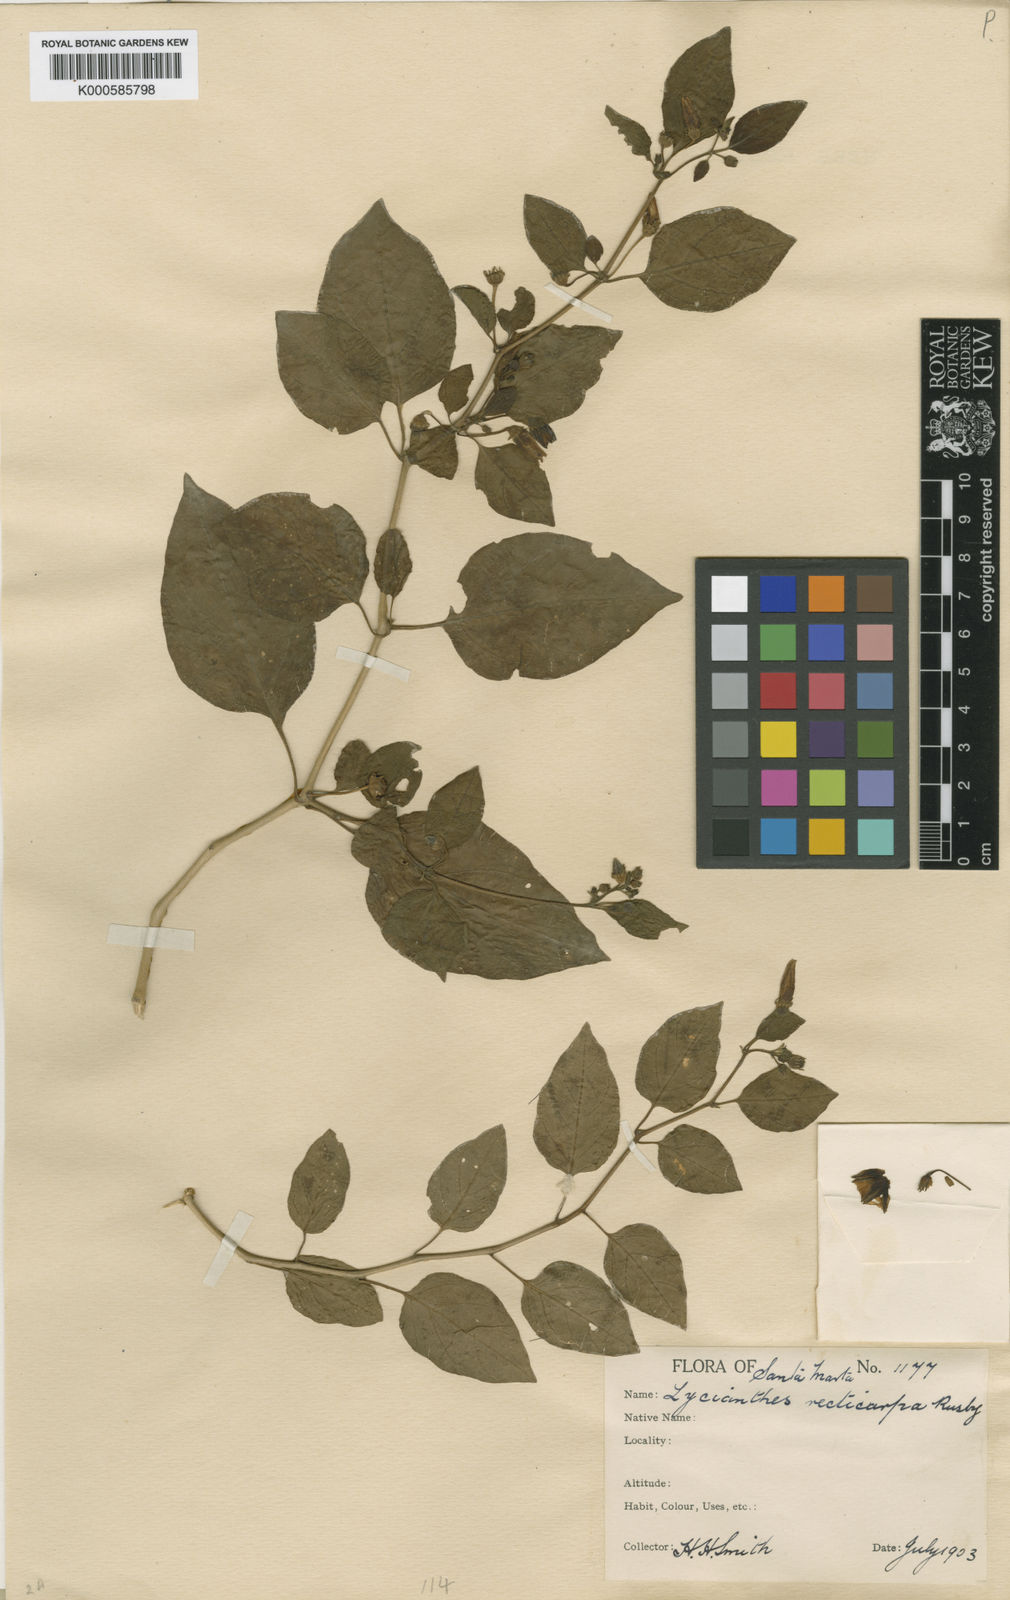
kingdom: Plantae
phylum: Tracheophyta
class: Magnoliopsida
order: Solanales
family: Solanaceae
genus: Lycianthes
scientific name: Lycianthes scandens
